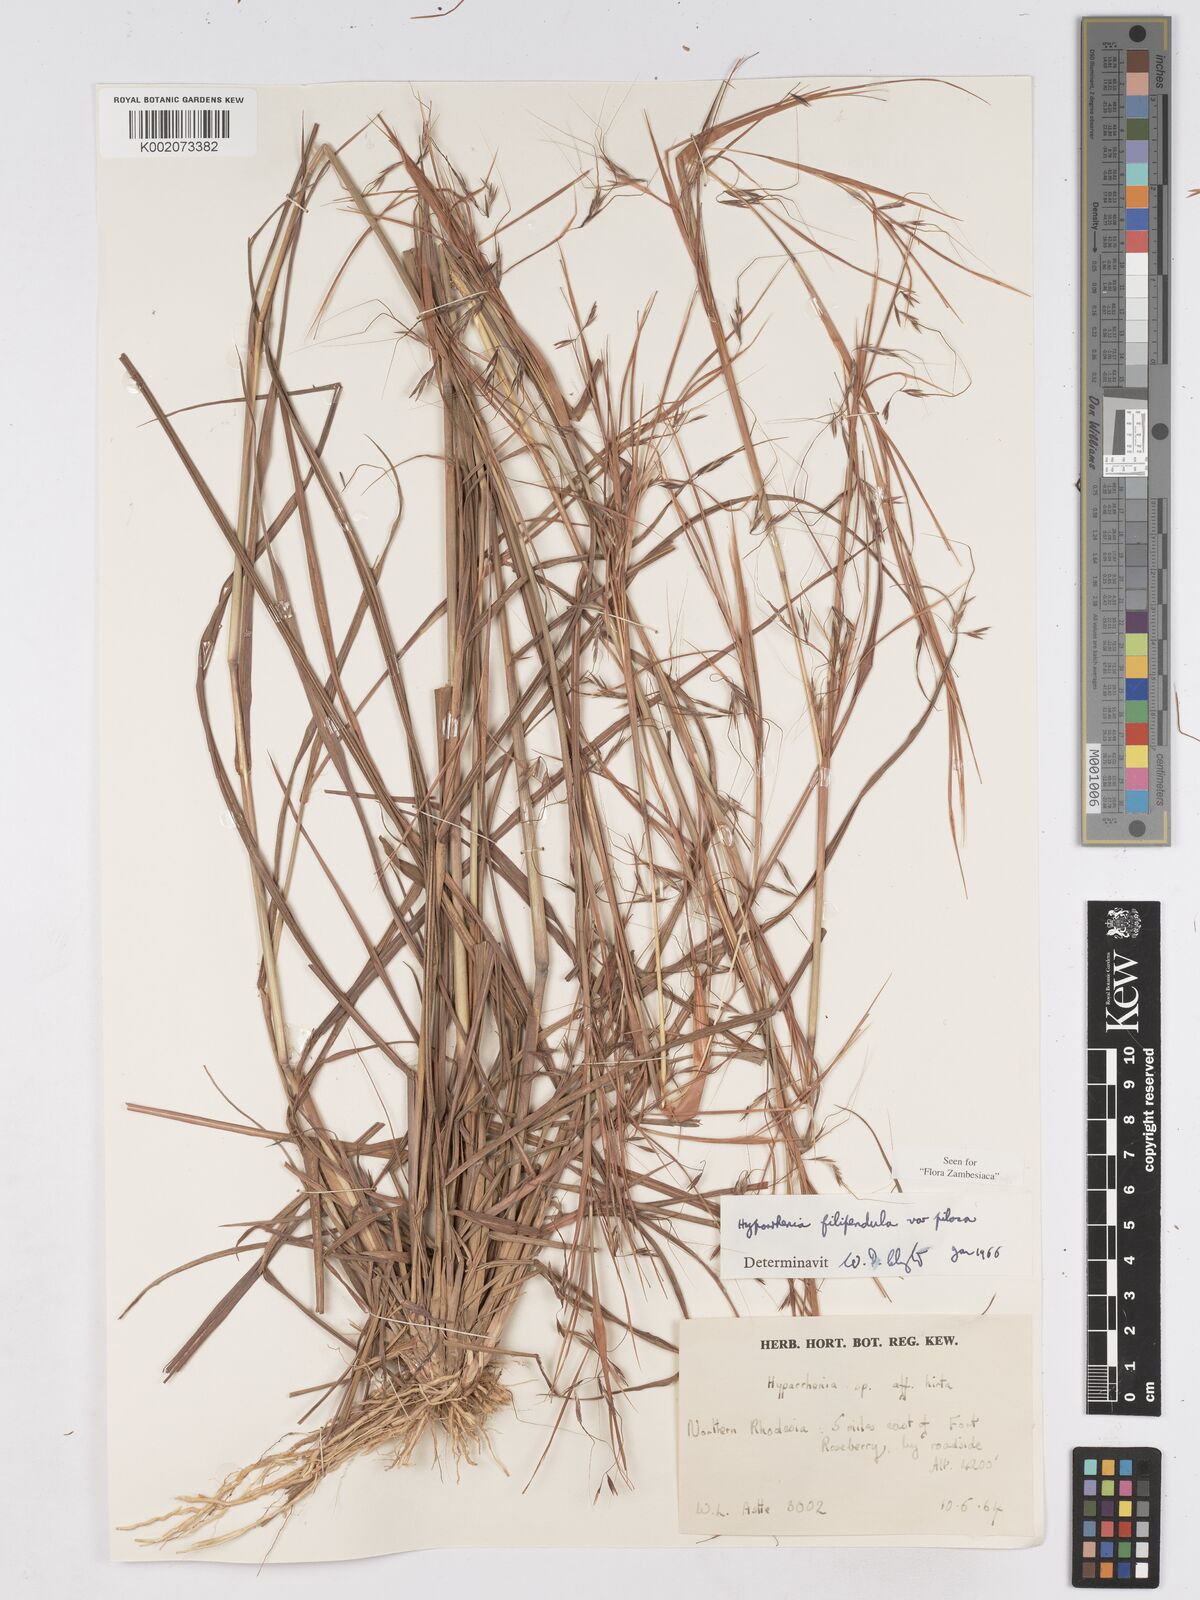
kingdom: Plantae
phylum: Tracheophyta
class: Liliopsida
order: Poales
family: Poaceae
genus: Hyparrhenia
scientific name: Hyparrhenia filipendula
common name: Tambookie grass
